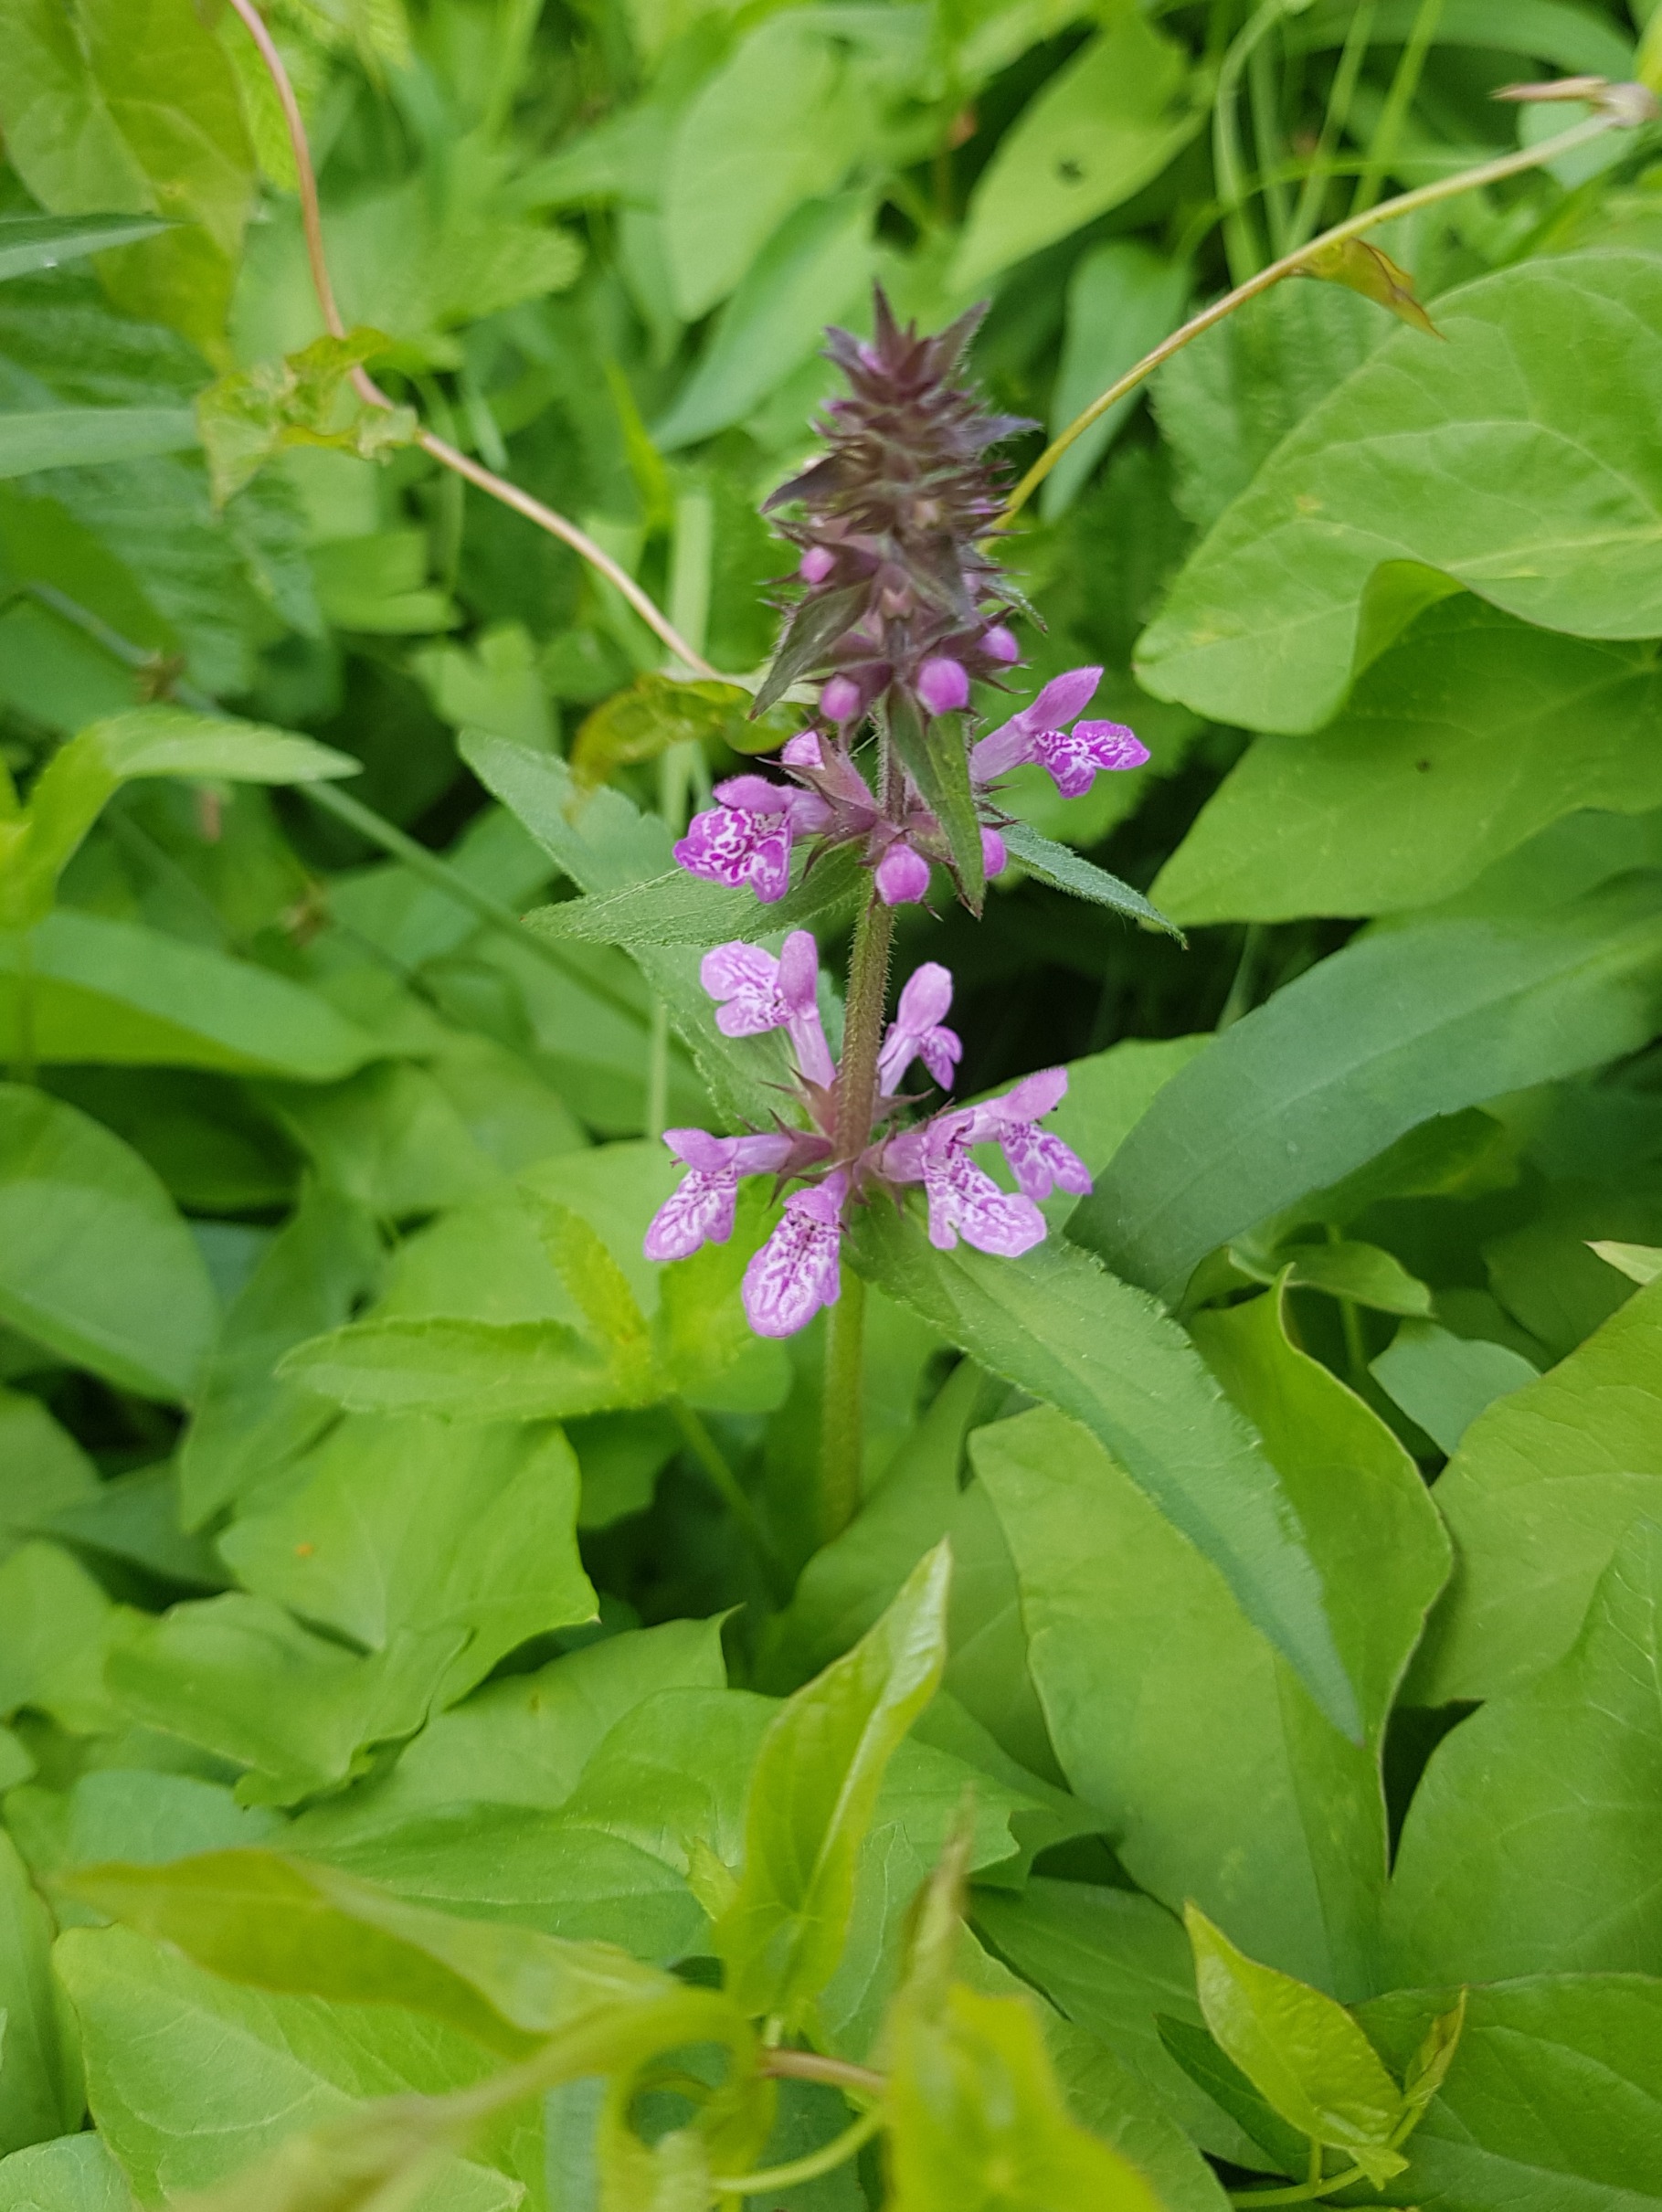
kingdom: Plantae
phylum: Tracheophyta
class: Magnoliopsida
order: Lamiales
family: Lamiaceae
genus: Stachys
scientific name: Stachys palustris
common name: Kær-galtetand
